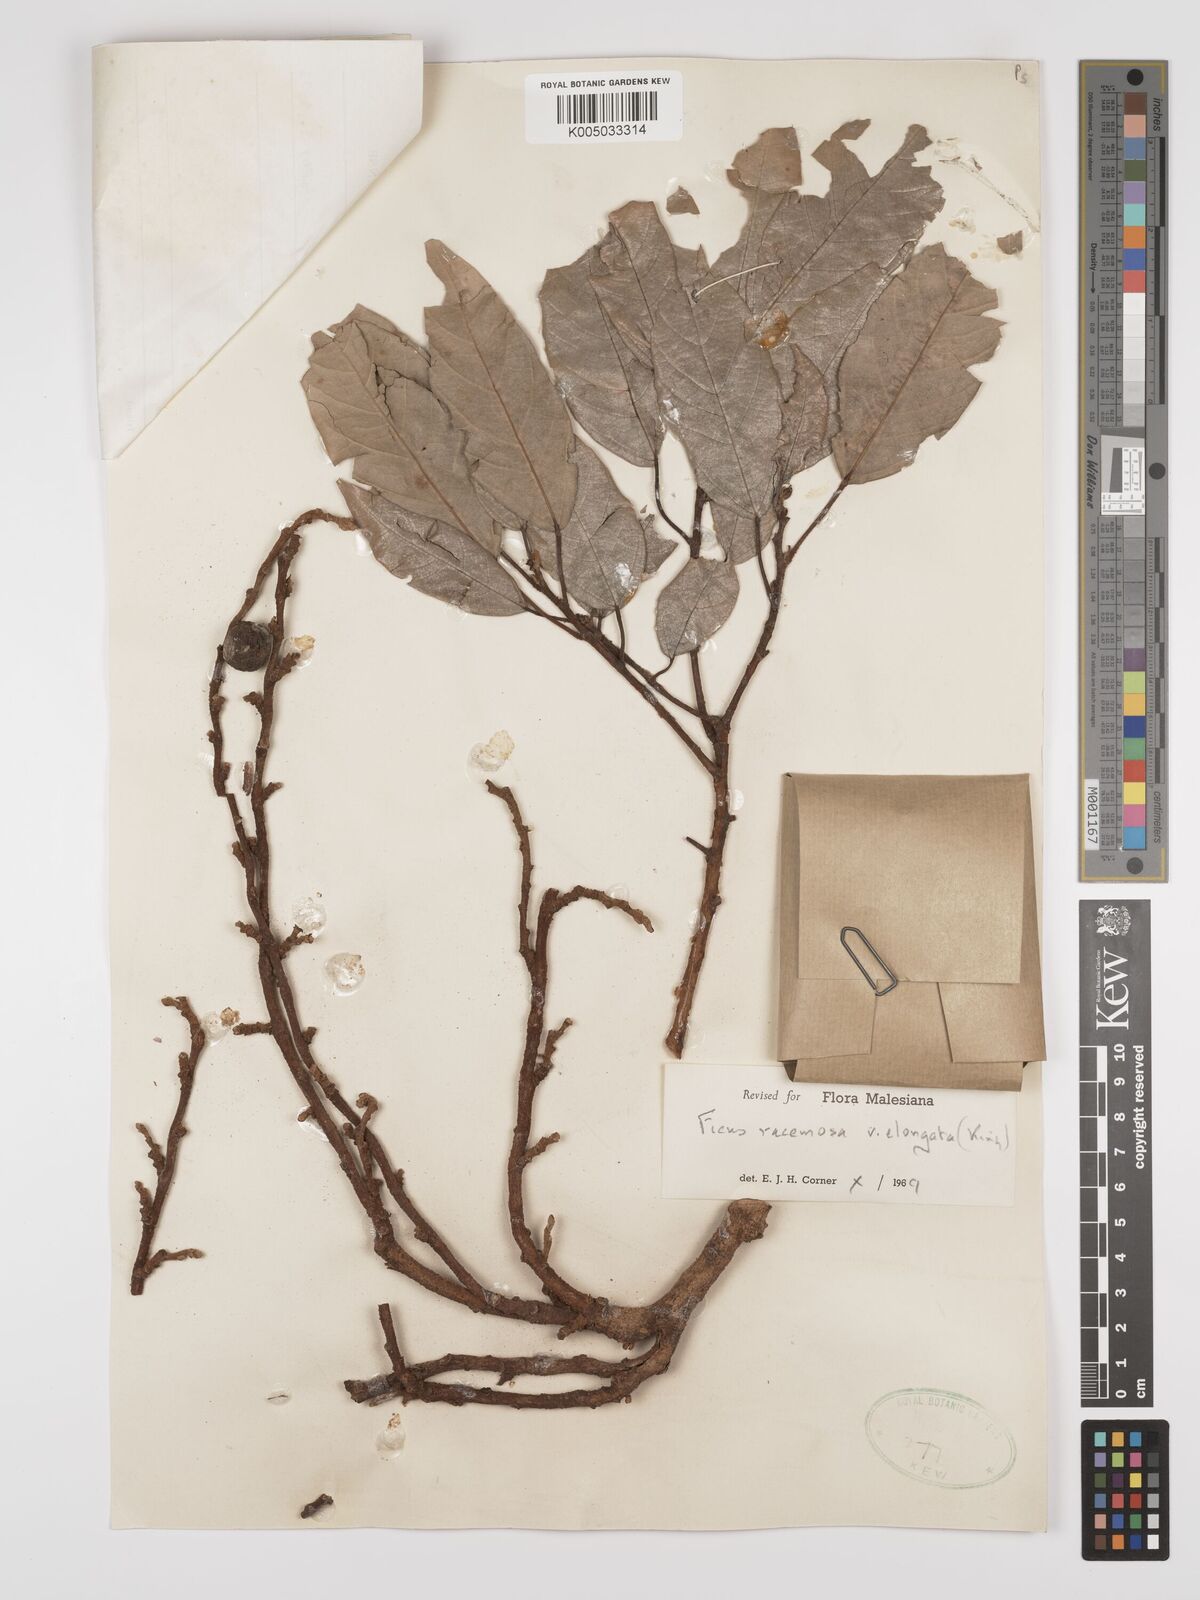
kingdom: Plantae
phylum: Tracheophyta
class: Magnoliopsida
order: Rosales
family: Moraceae
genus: Ficus
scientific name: Ficus
